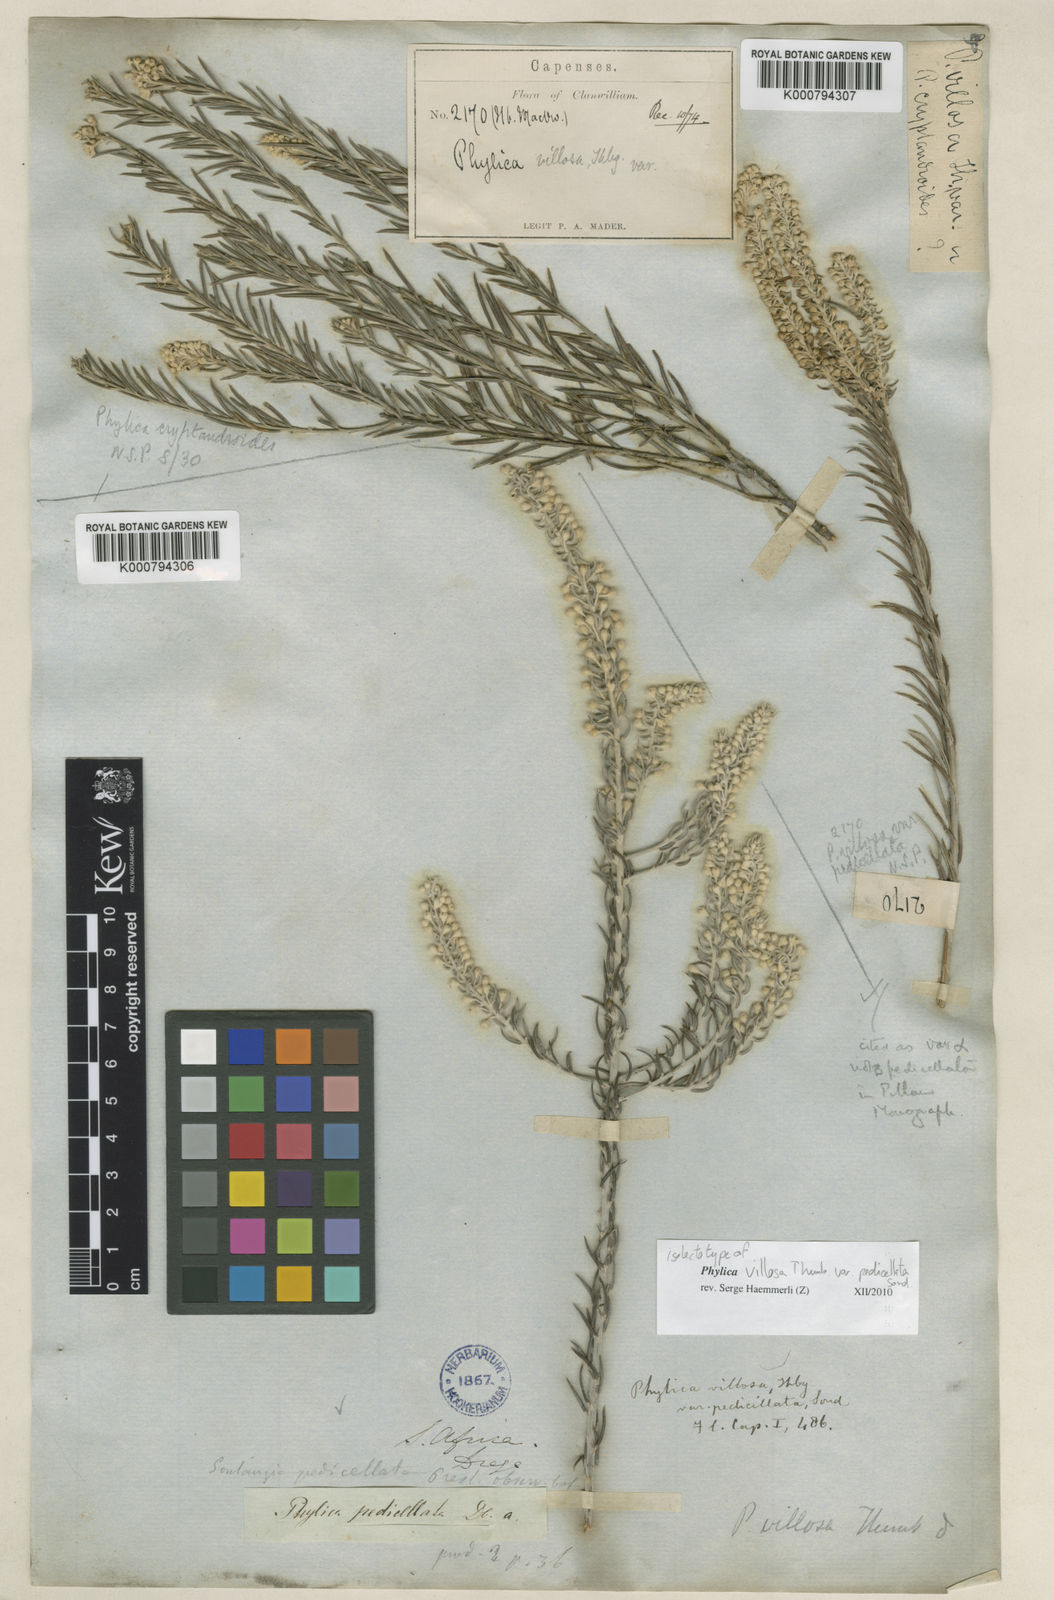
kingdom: Plantae
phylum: Tracheophyta
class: Magnoliopsida
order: Rosales
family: Rhamnaceae
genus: Phylica
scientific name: Phylica villosa
